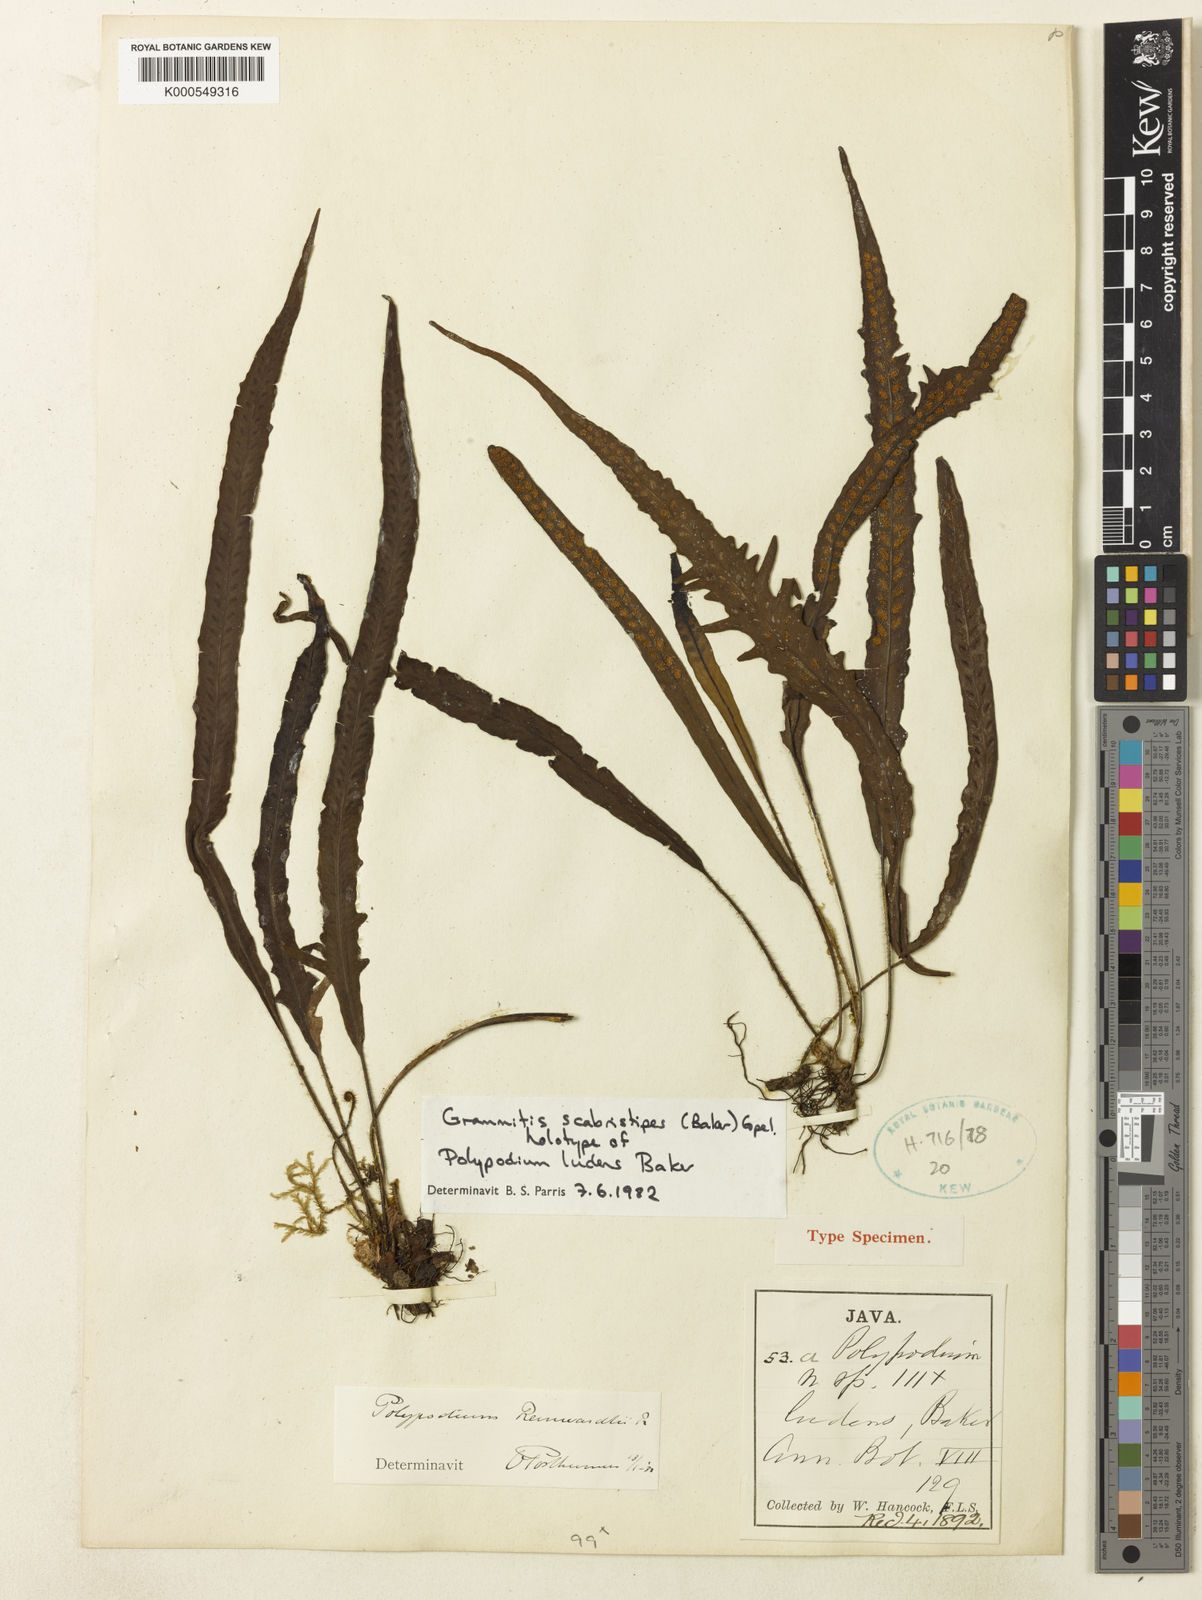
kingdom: Plantae
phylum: Tracheophyta
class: Polypodiopsida
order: Polypodiales
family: Polypodiaceae
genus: Oreogrammitis
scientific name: Oreogrammitis scabristipes
